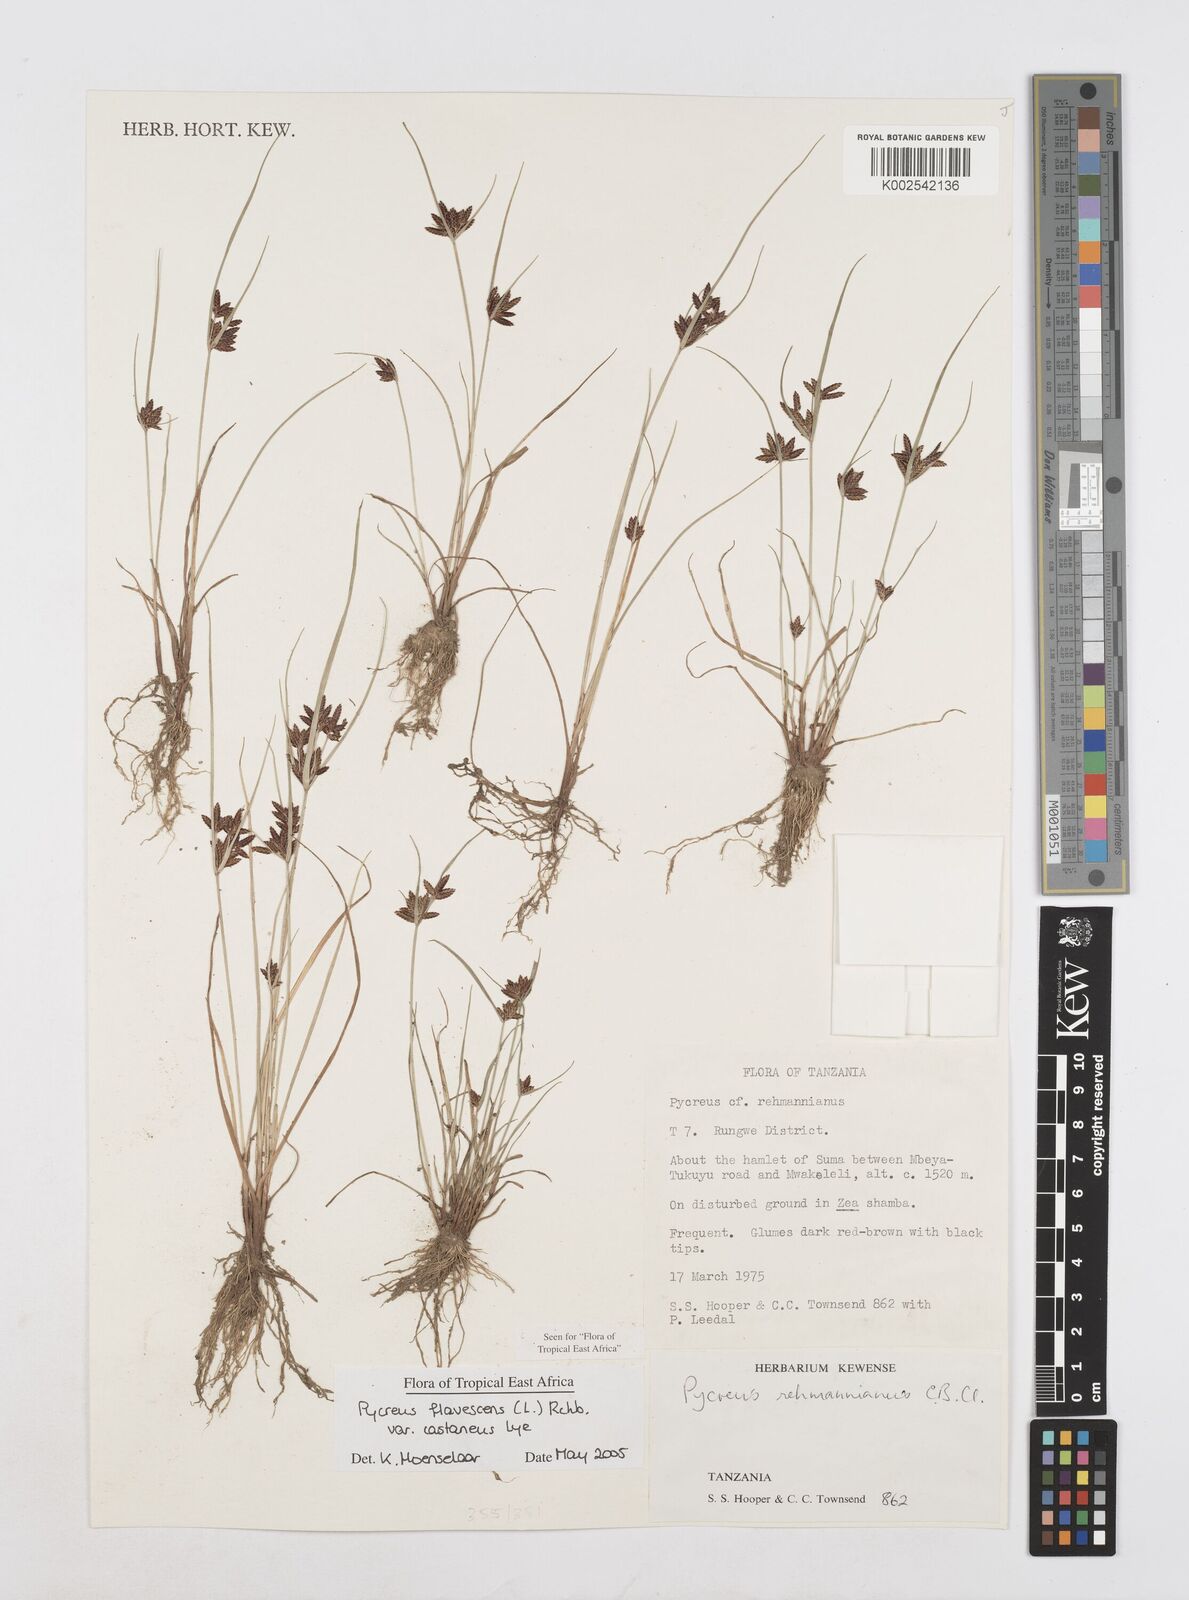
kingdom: Plantae
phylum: Tracheophyta
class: Liliopsida
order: Poales
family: Cyperaceae
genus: Cyperus
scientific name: Cyperus flavescens
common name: Yellow galingale
